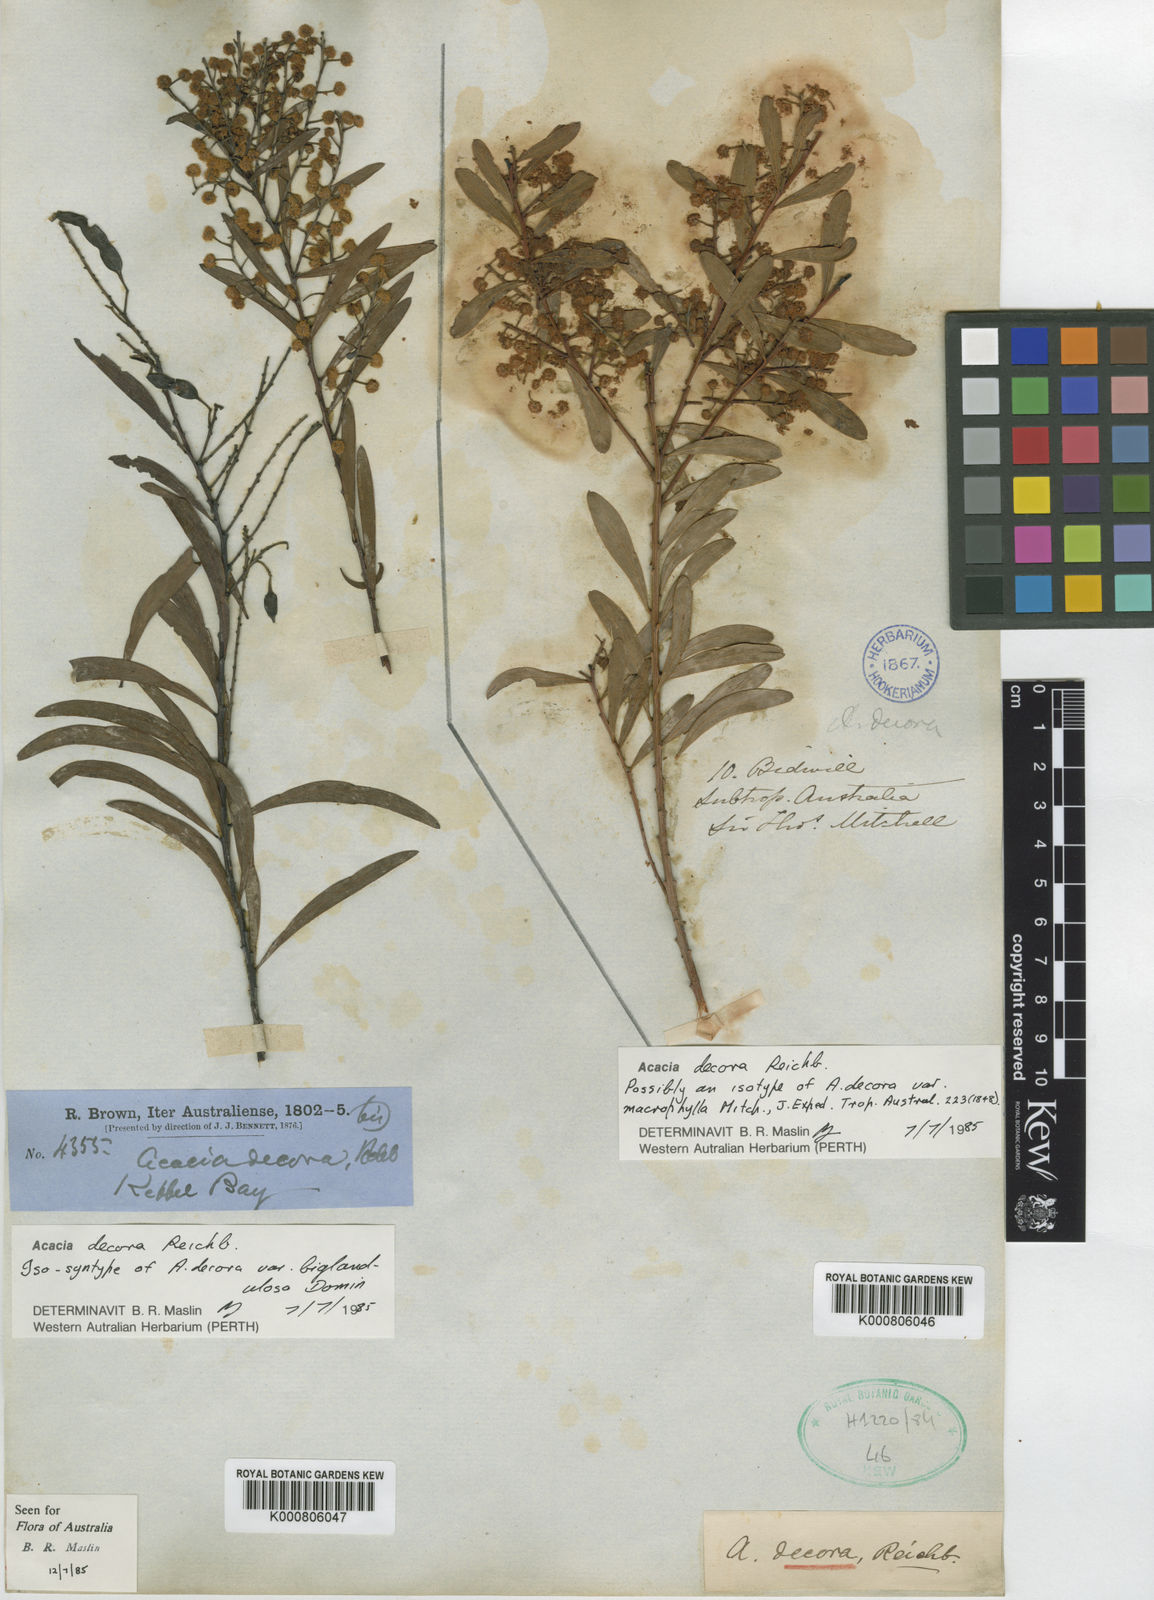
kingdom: Plantae
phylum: Tracheophyta
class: Magnoliopsida
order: Fabales
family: Fabaceae
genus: Acacia
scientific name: Acacia decora
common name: Showy wattle
